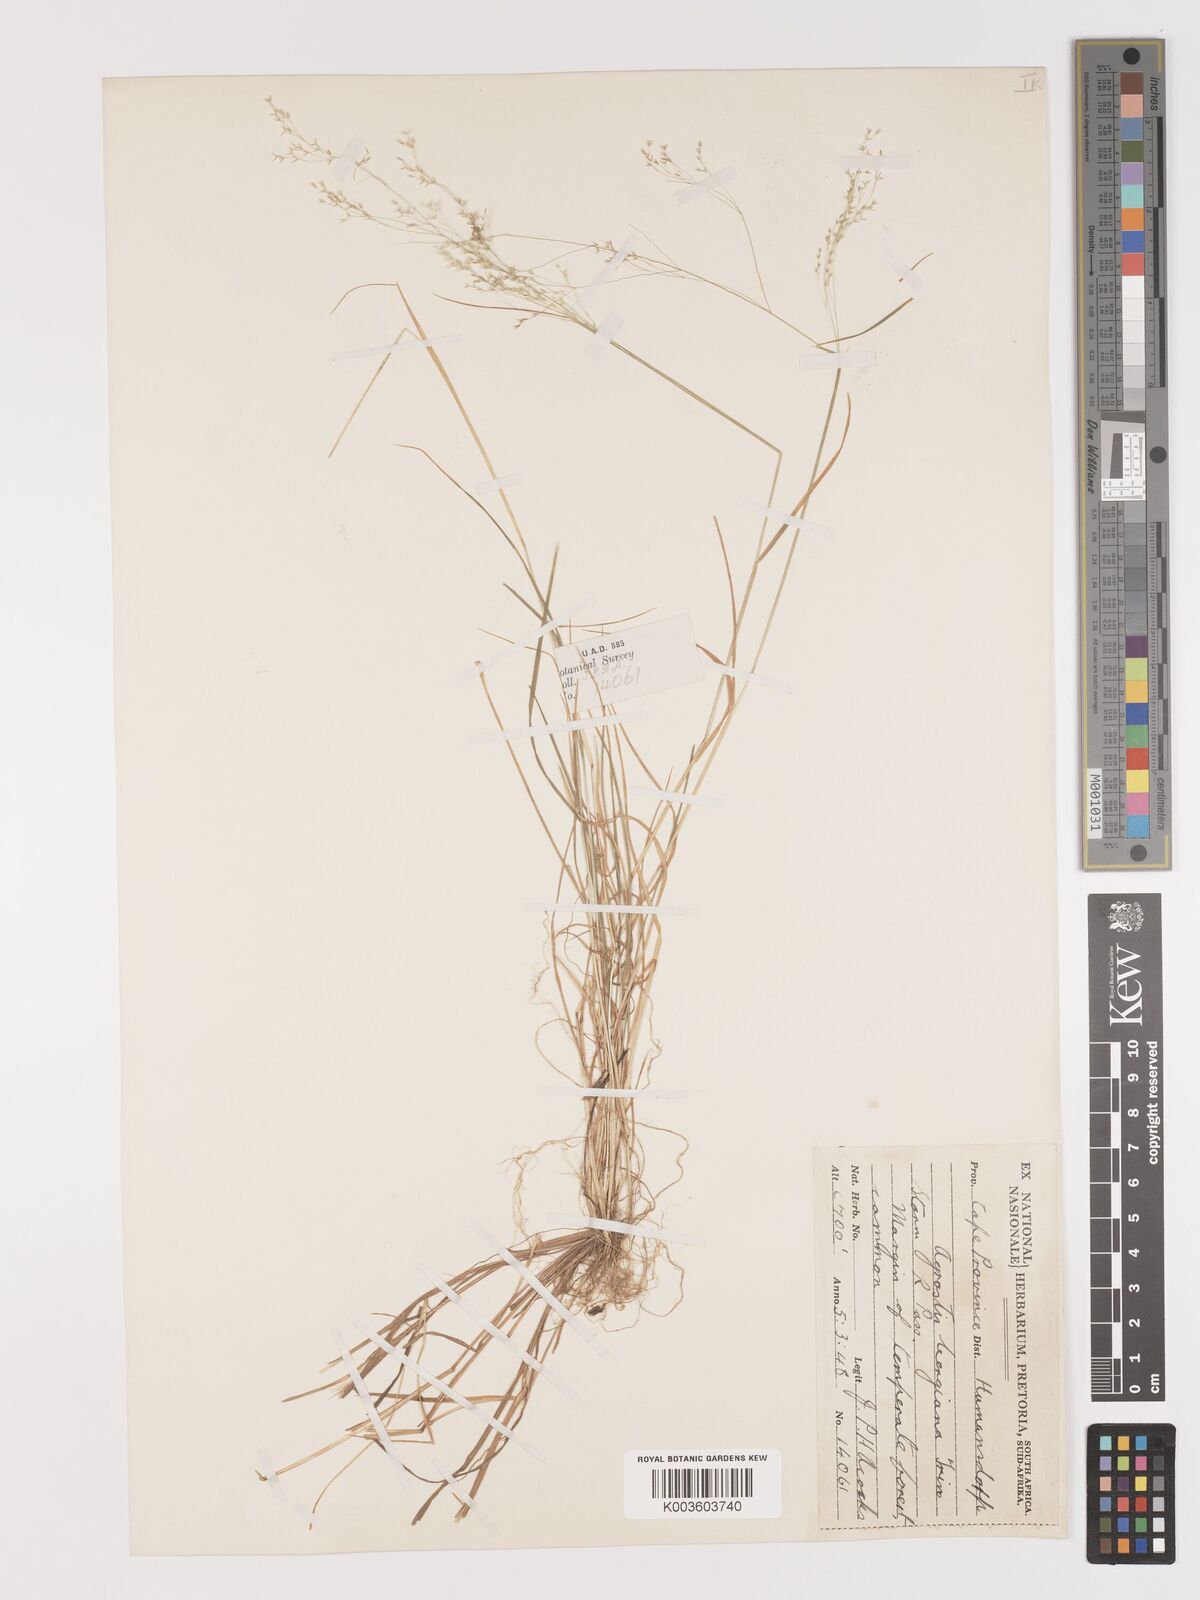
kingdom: Plantae
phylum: Tracheophyta
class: Liliopsida
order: Poales
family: Poaceae
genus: Agrostis
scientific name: Agrostis bergiana
